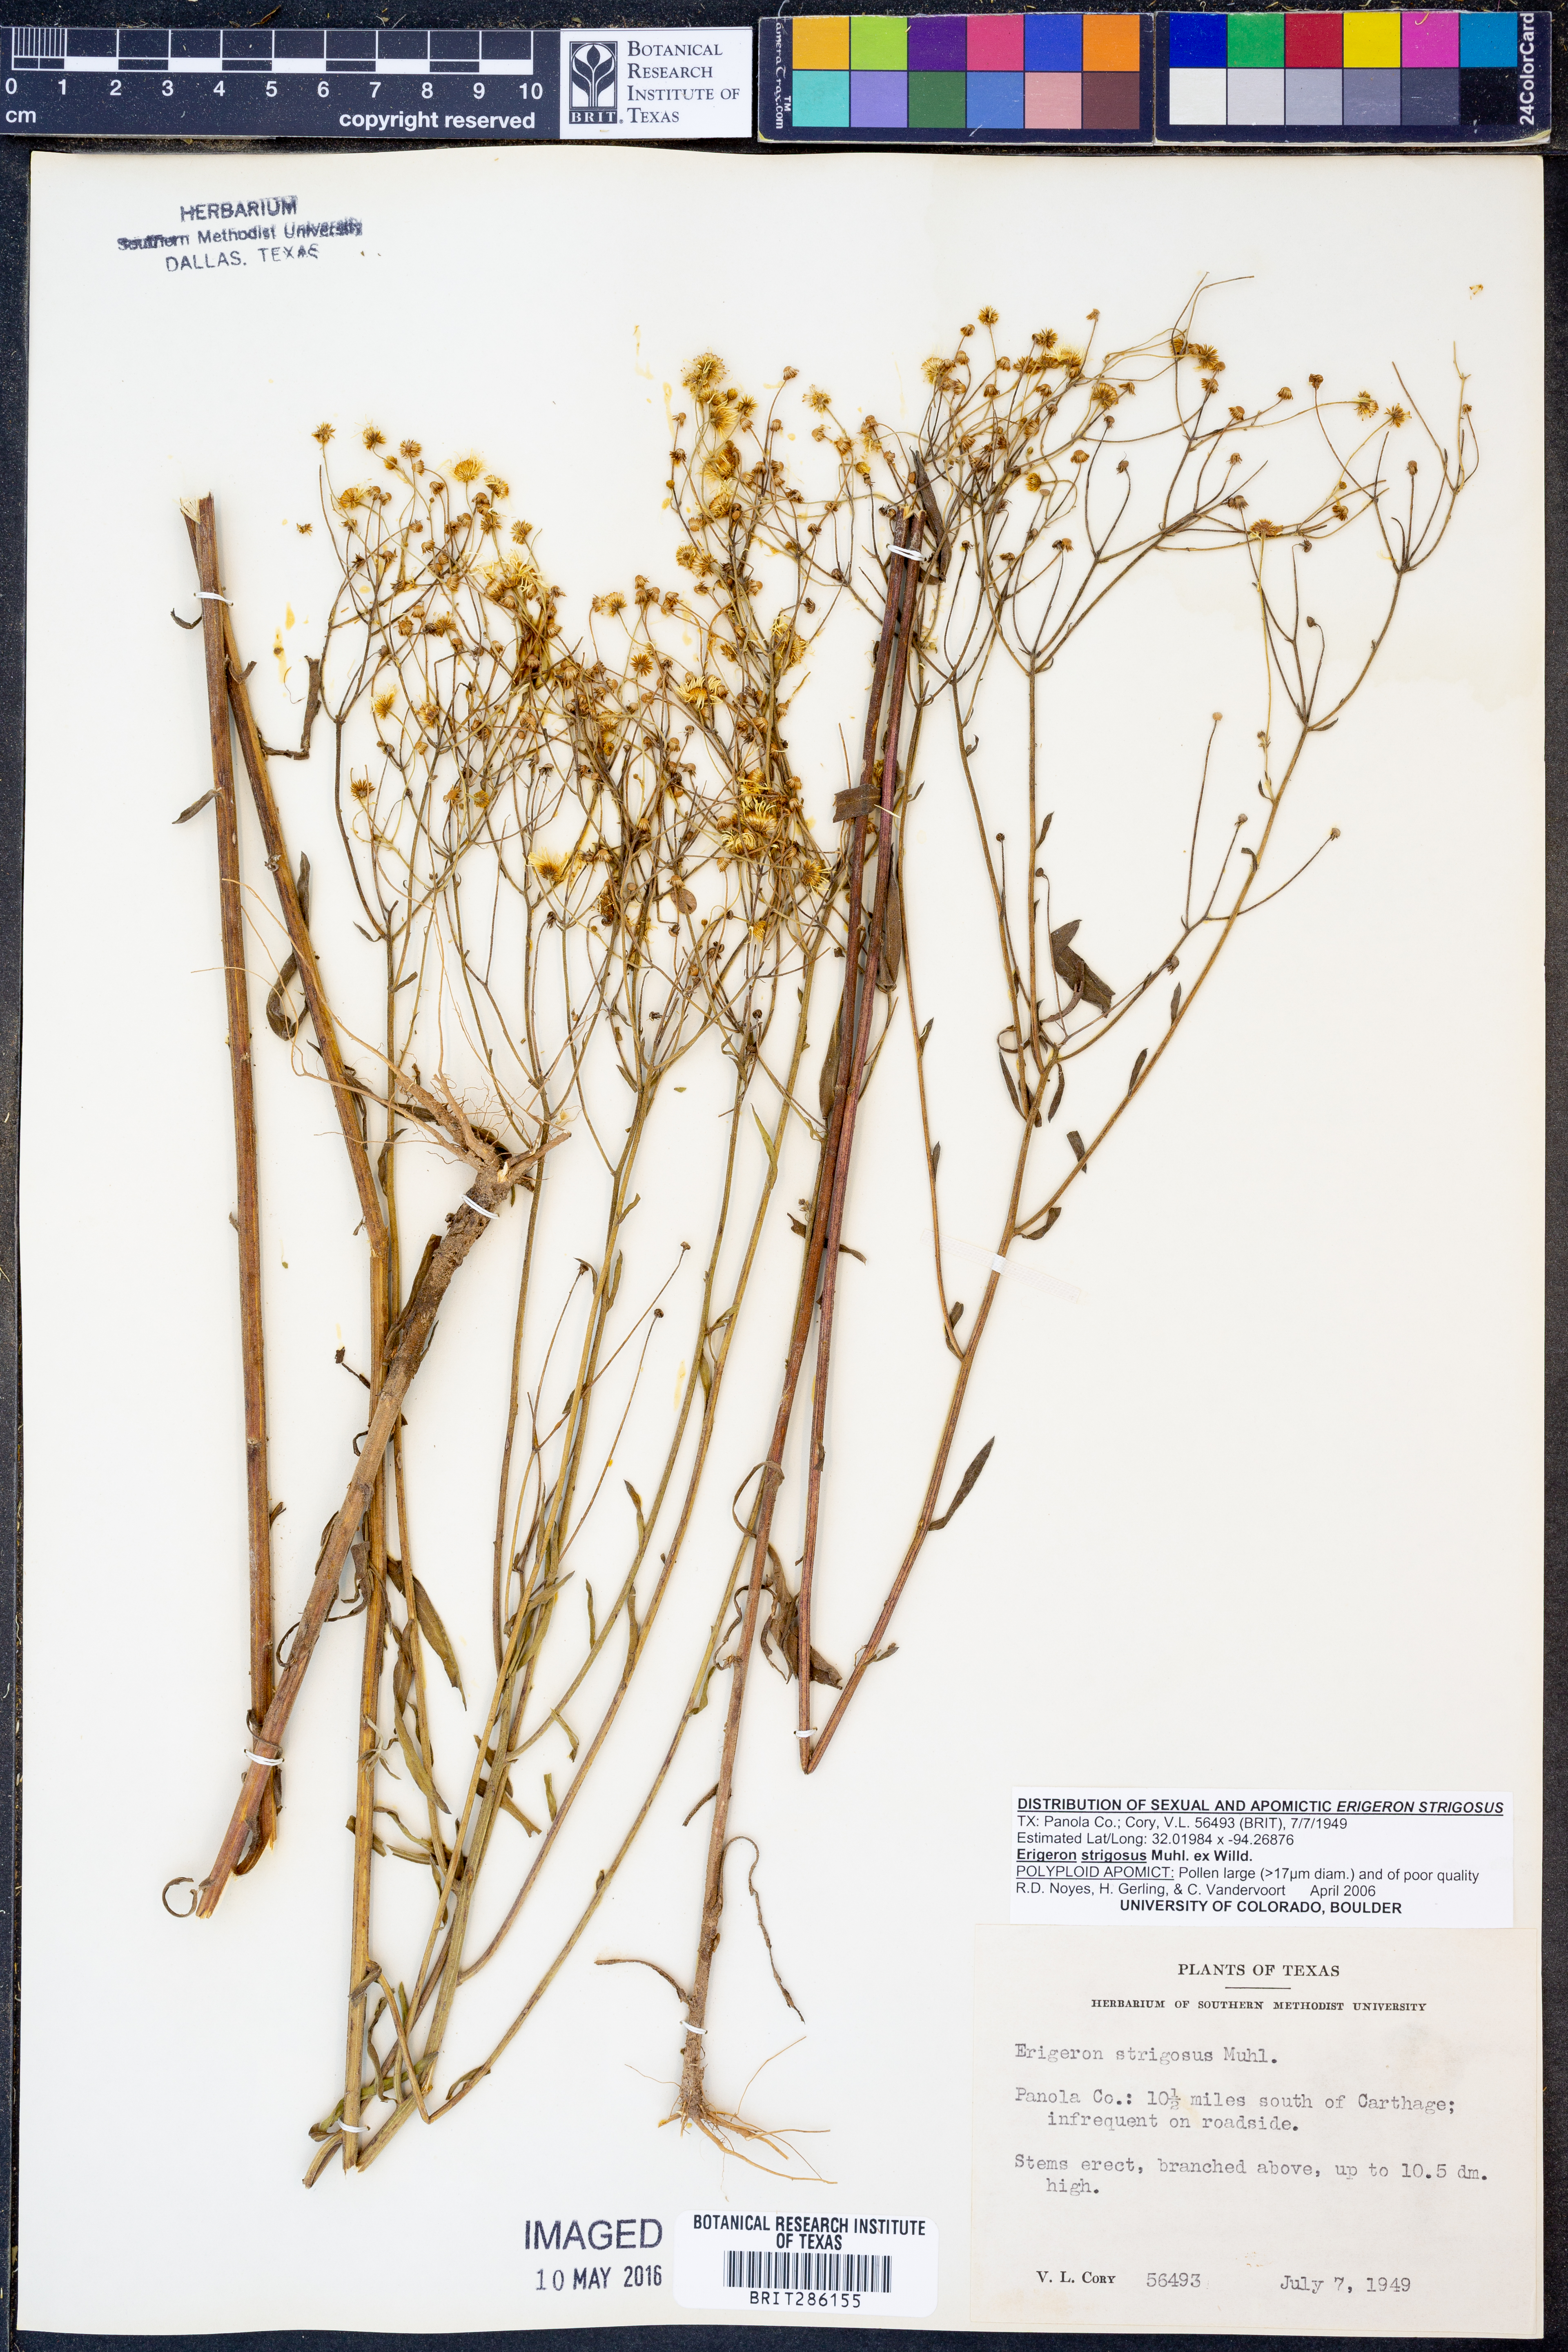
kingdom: Plantae
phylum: Tracheophyta
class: Magnoliopsida
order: Asterales
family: Asteraceae
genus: Erigeron
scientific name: Erigeron strigosus
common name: Common eastern fleabane
